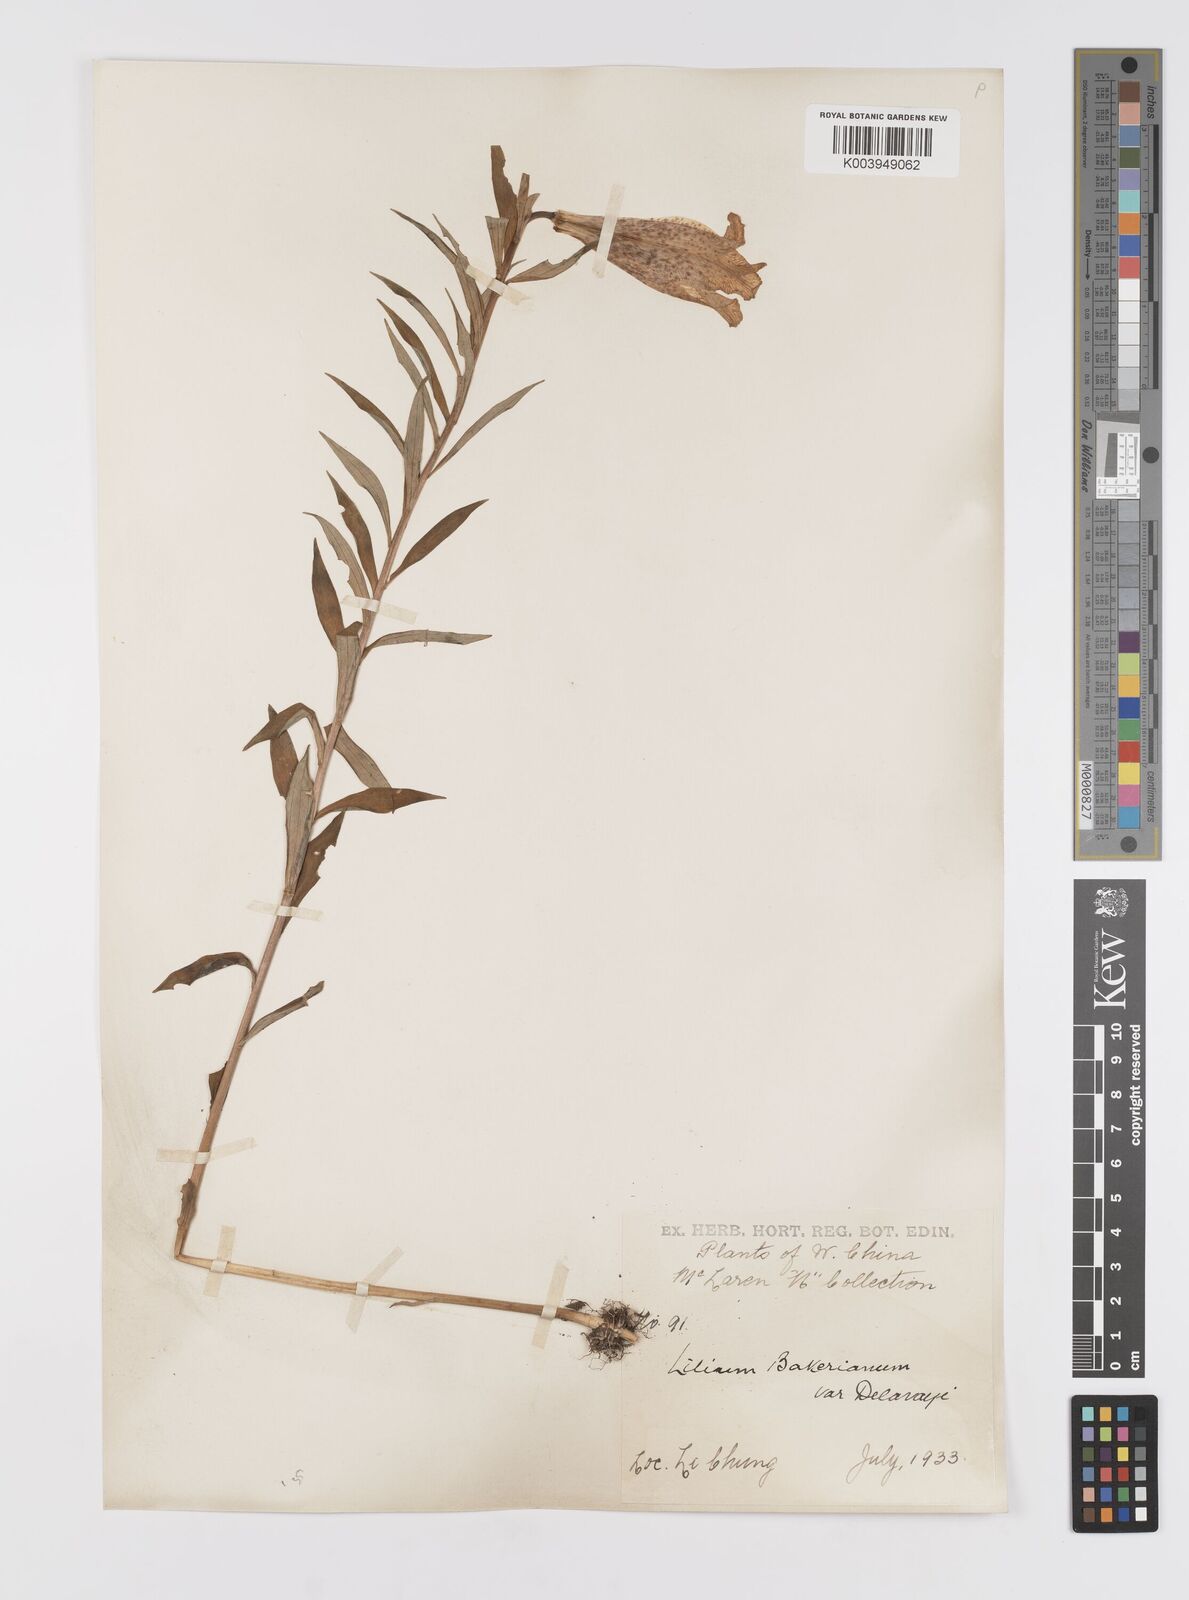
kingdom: Plantae
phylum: Tracheophyta
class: Liliopsida
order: Liliales
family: Liliaceae
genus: Lilium
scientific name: Lilium bakerianum
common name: Baker's lily
